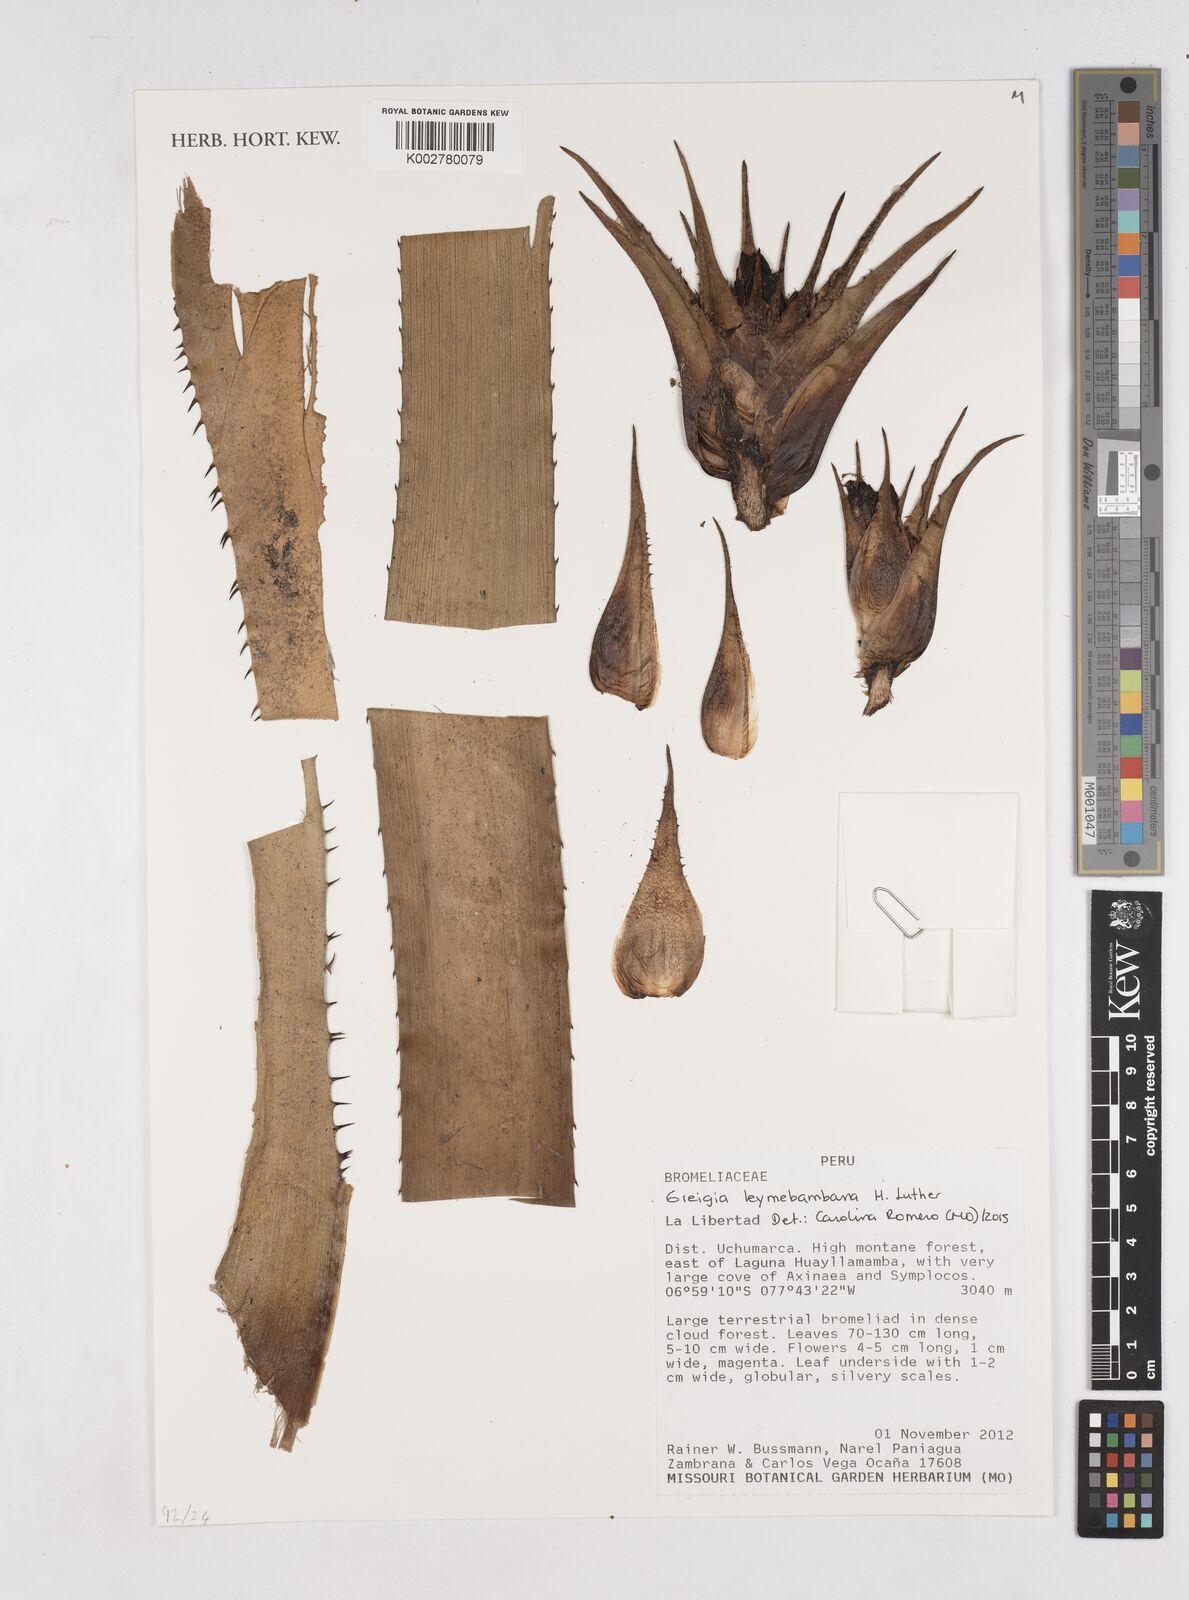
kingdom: Plantae
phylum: Tracheophyta
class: Liliopsida
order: Poales
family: Bromeliaceae
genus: Greigia
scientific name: Greigia leymebambana
